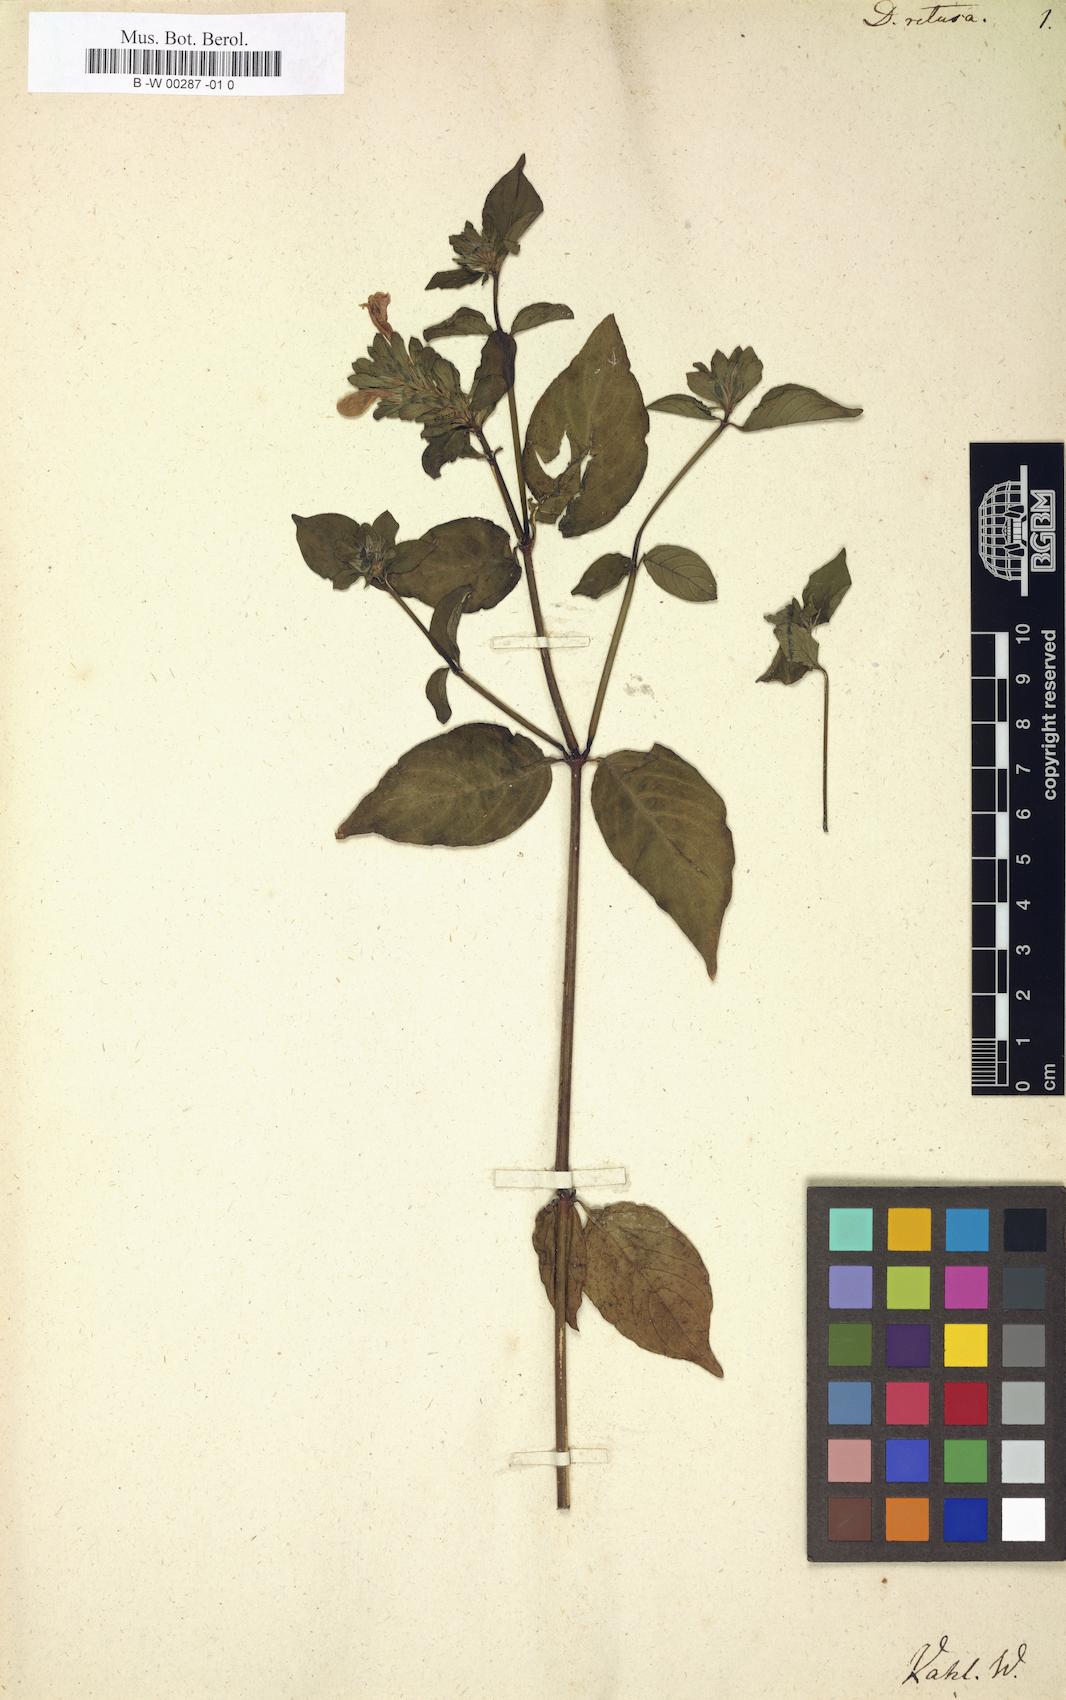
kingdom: Plantae
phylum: Tracheophyta
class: Magnoliopsida
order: Lamiales
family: Acanthaceae
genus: Justicia
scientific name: Justicia carthaginensis
